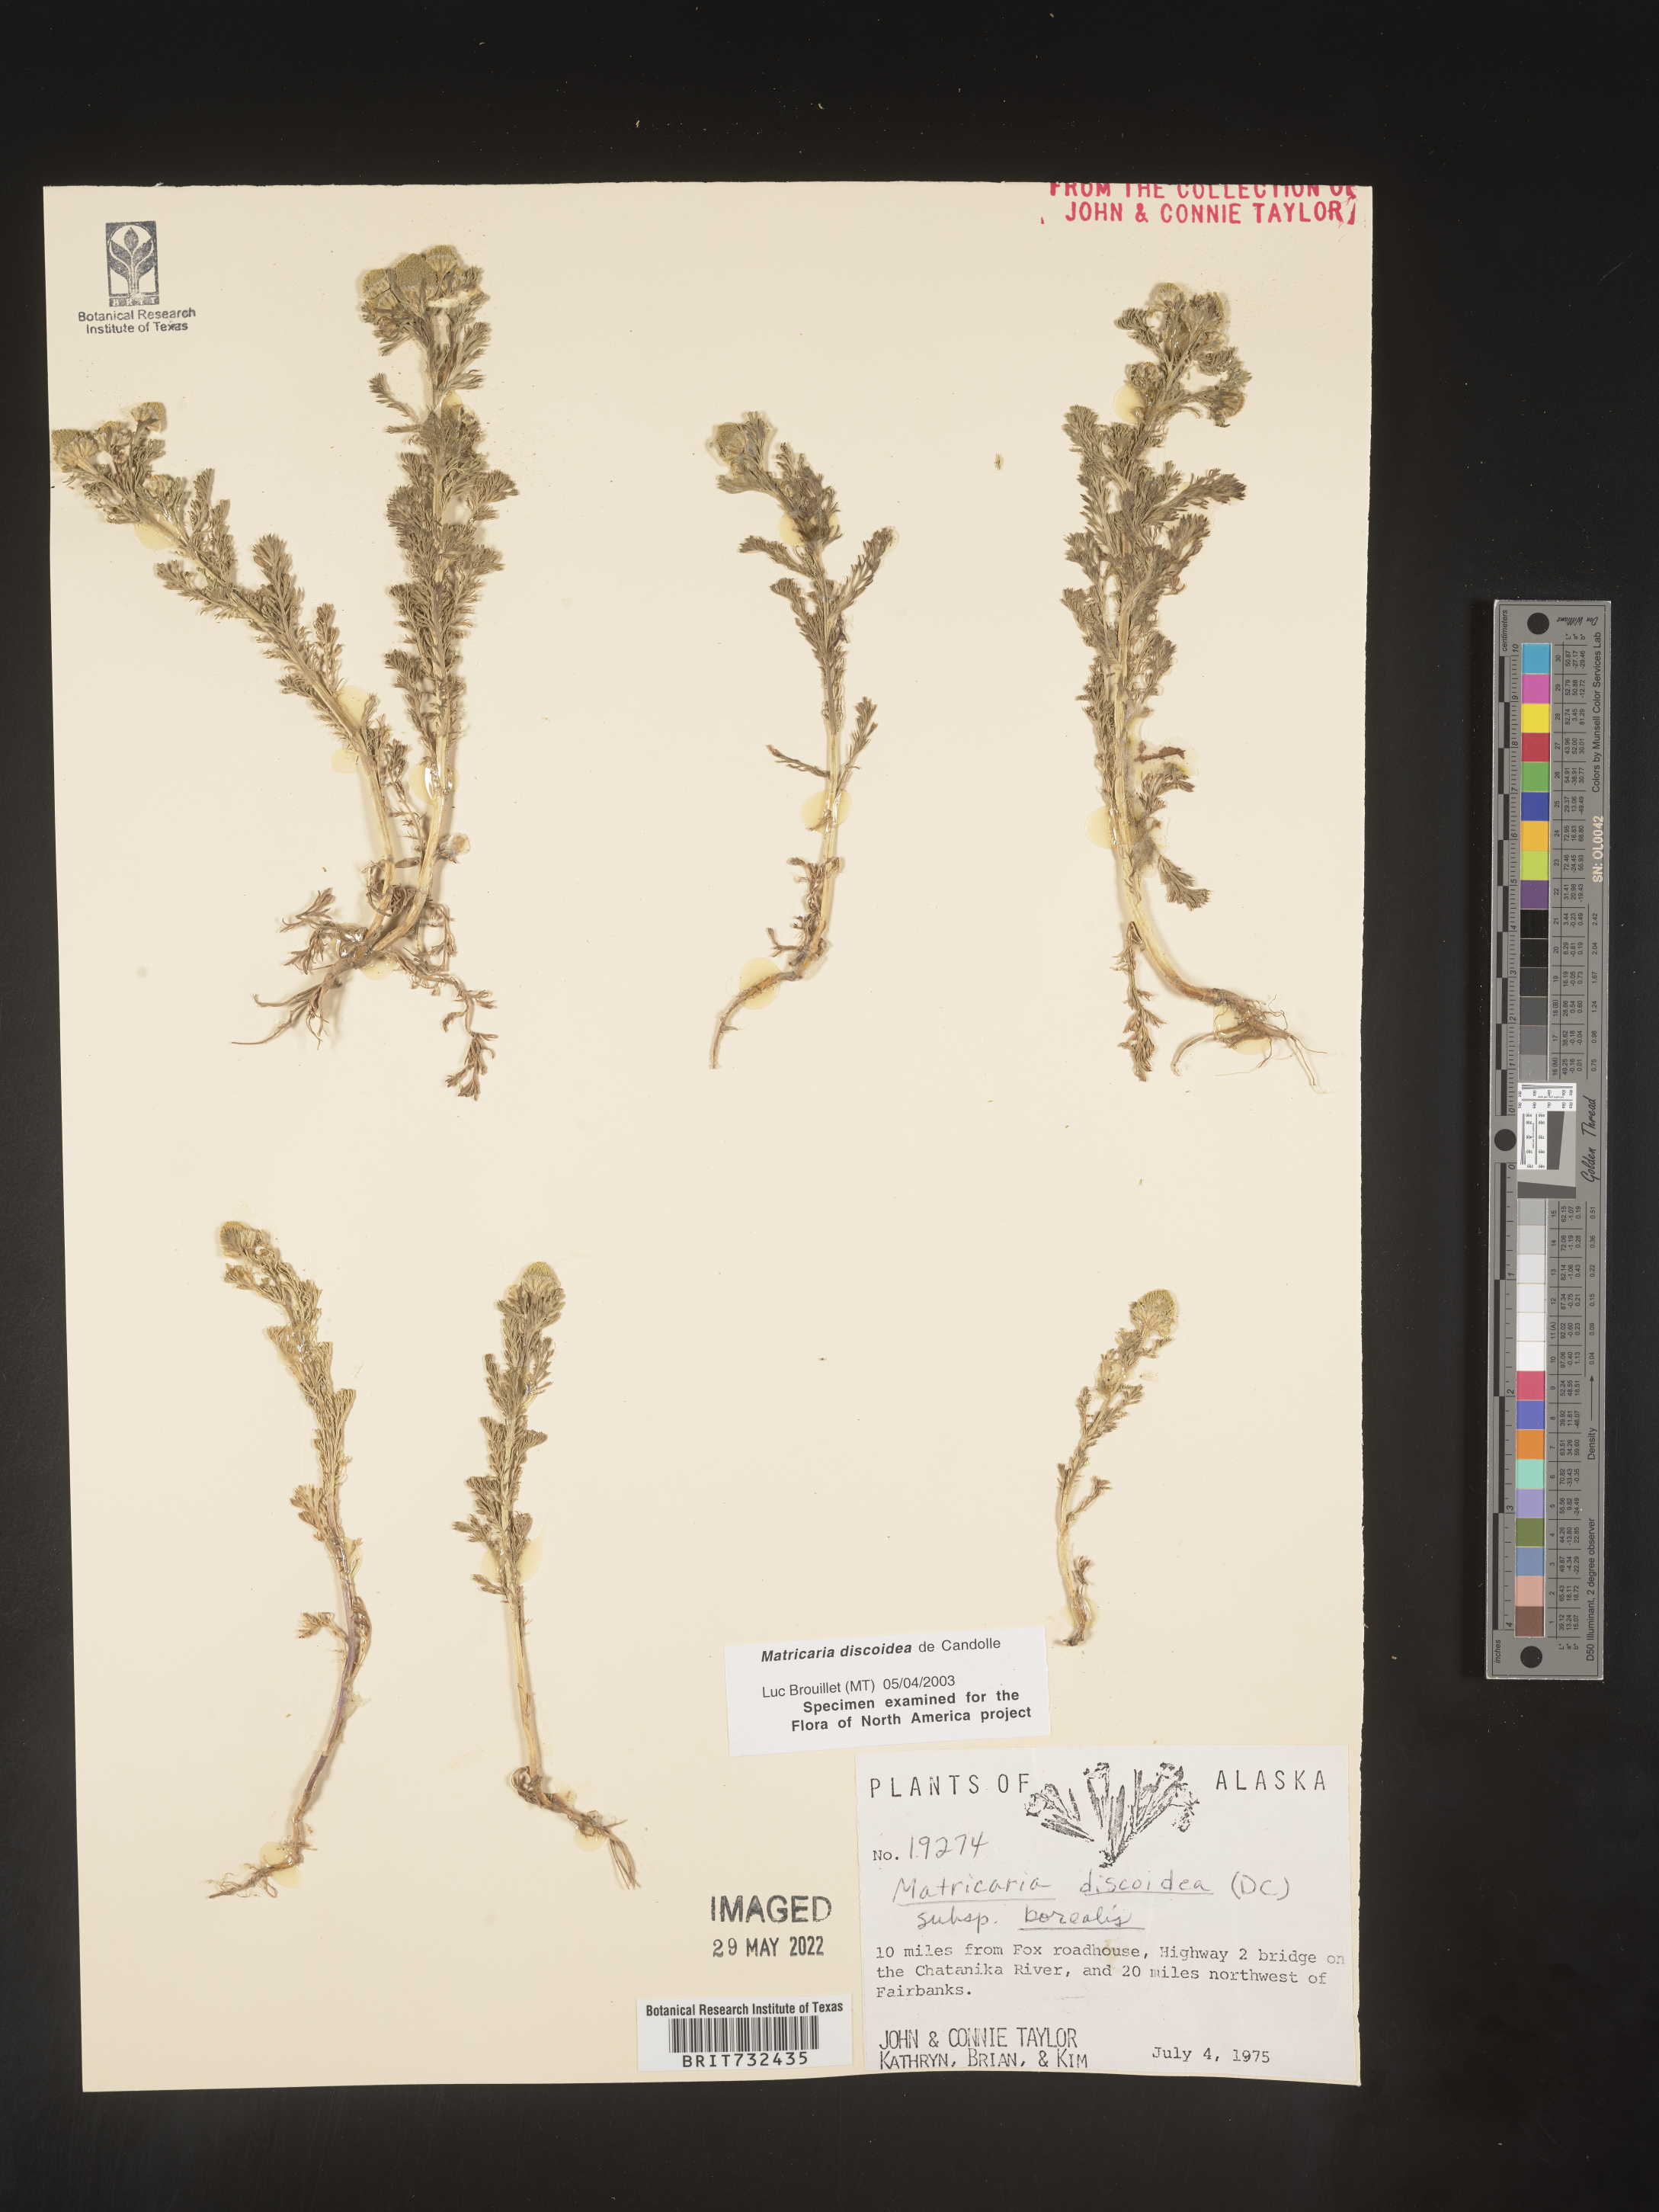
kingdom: Plantae
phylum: Tracheophyta
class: Magnoliopsida
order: Asterales
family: Asteraceae
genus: Matricaria
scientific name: Matricaria discoidea
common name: Disc mayweed
